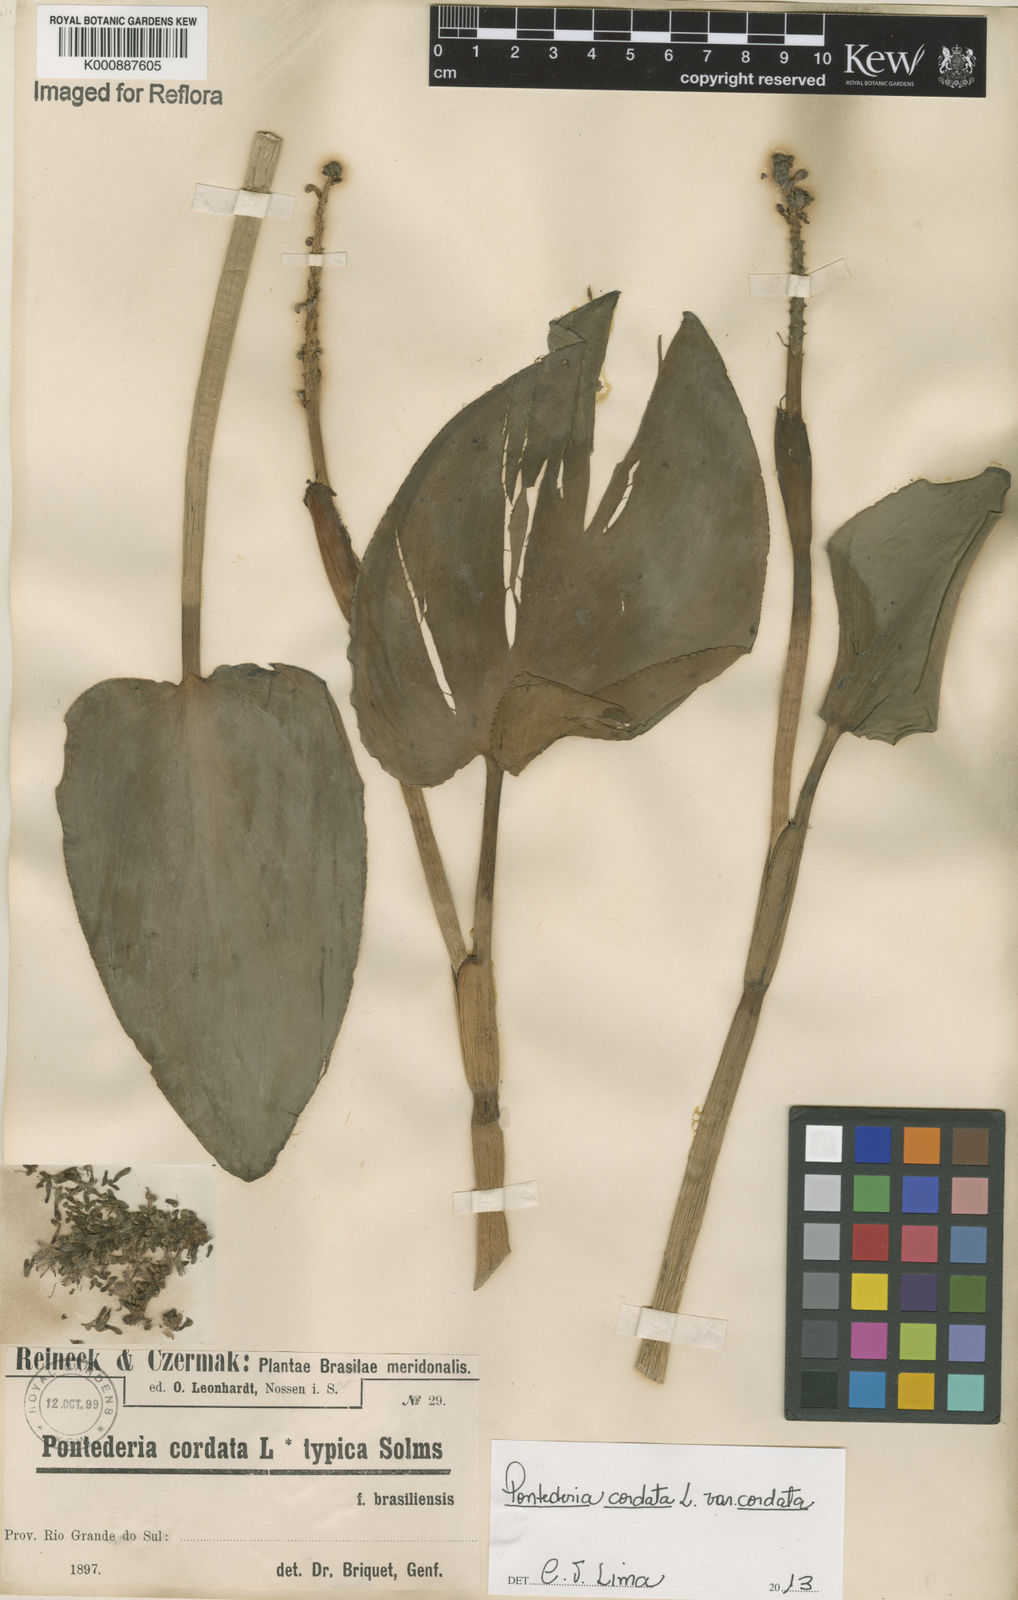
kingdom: Plantae
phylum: Tracheophyta
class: Liliopsida
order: Commelinales
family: Pontederiaceae
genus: Pontederia
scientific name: Pontederia cordata
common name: Pickerelweed
